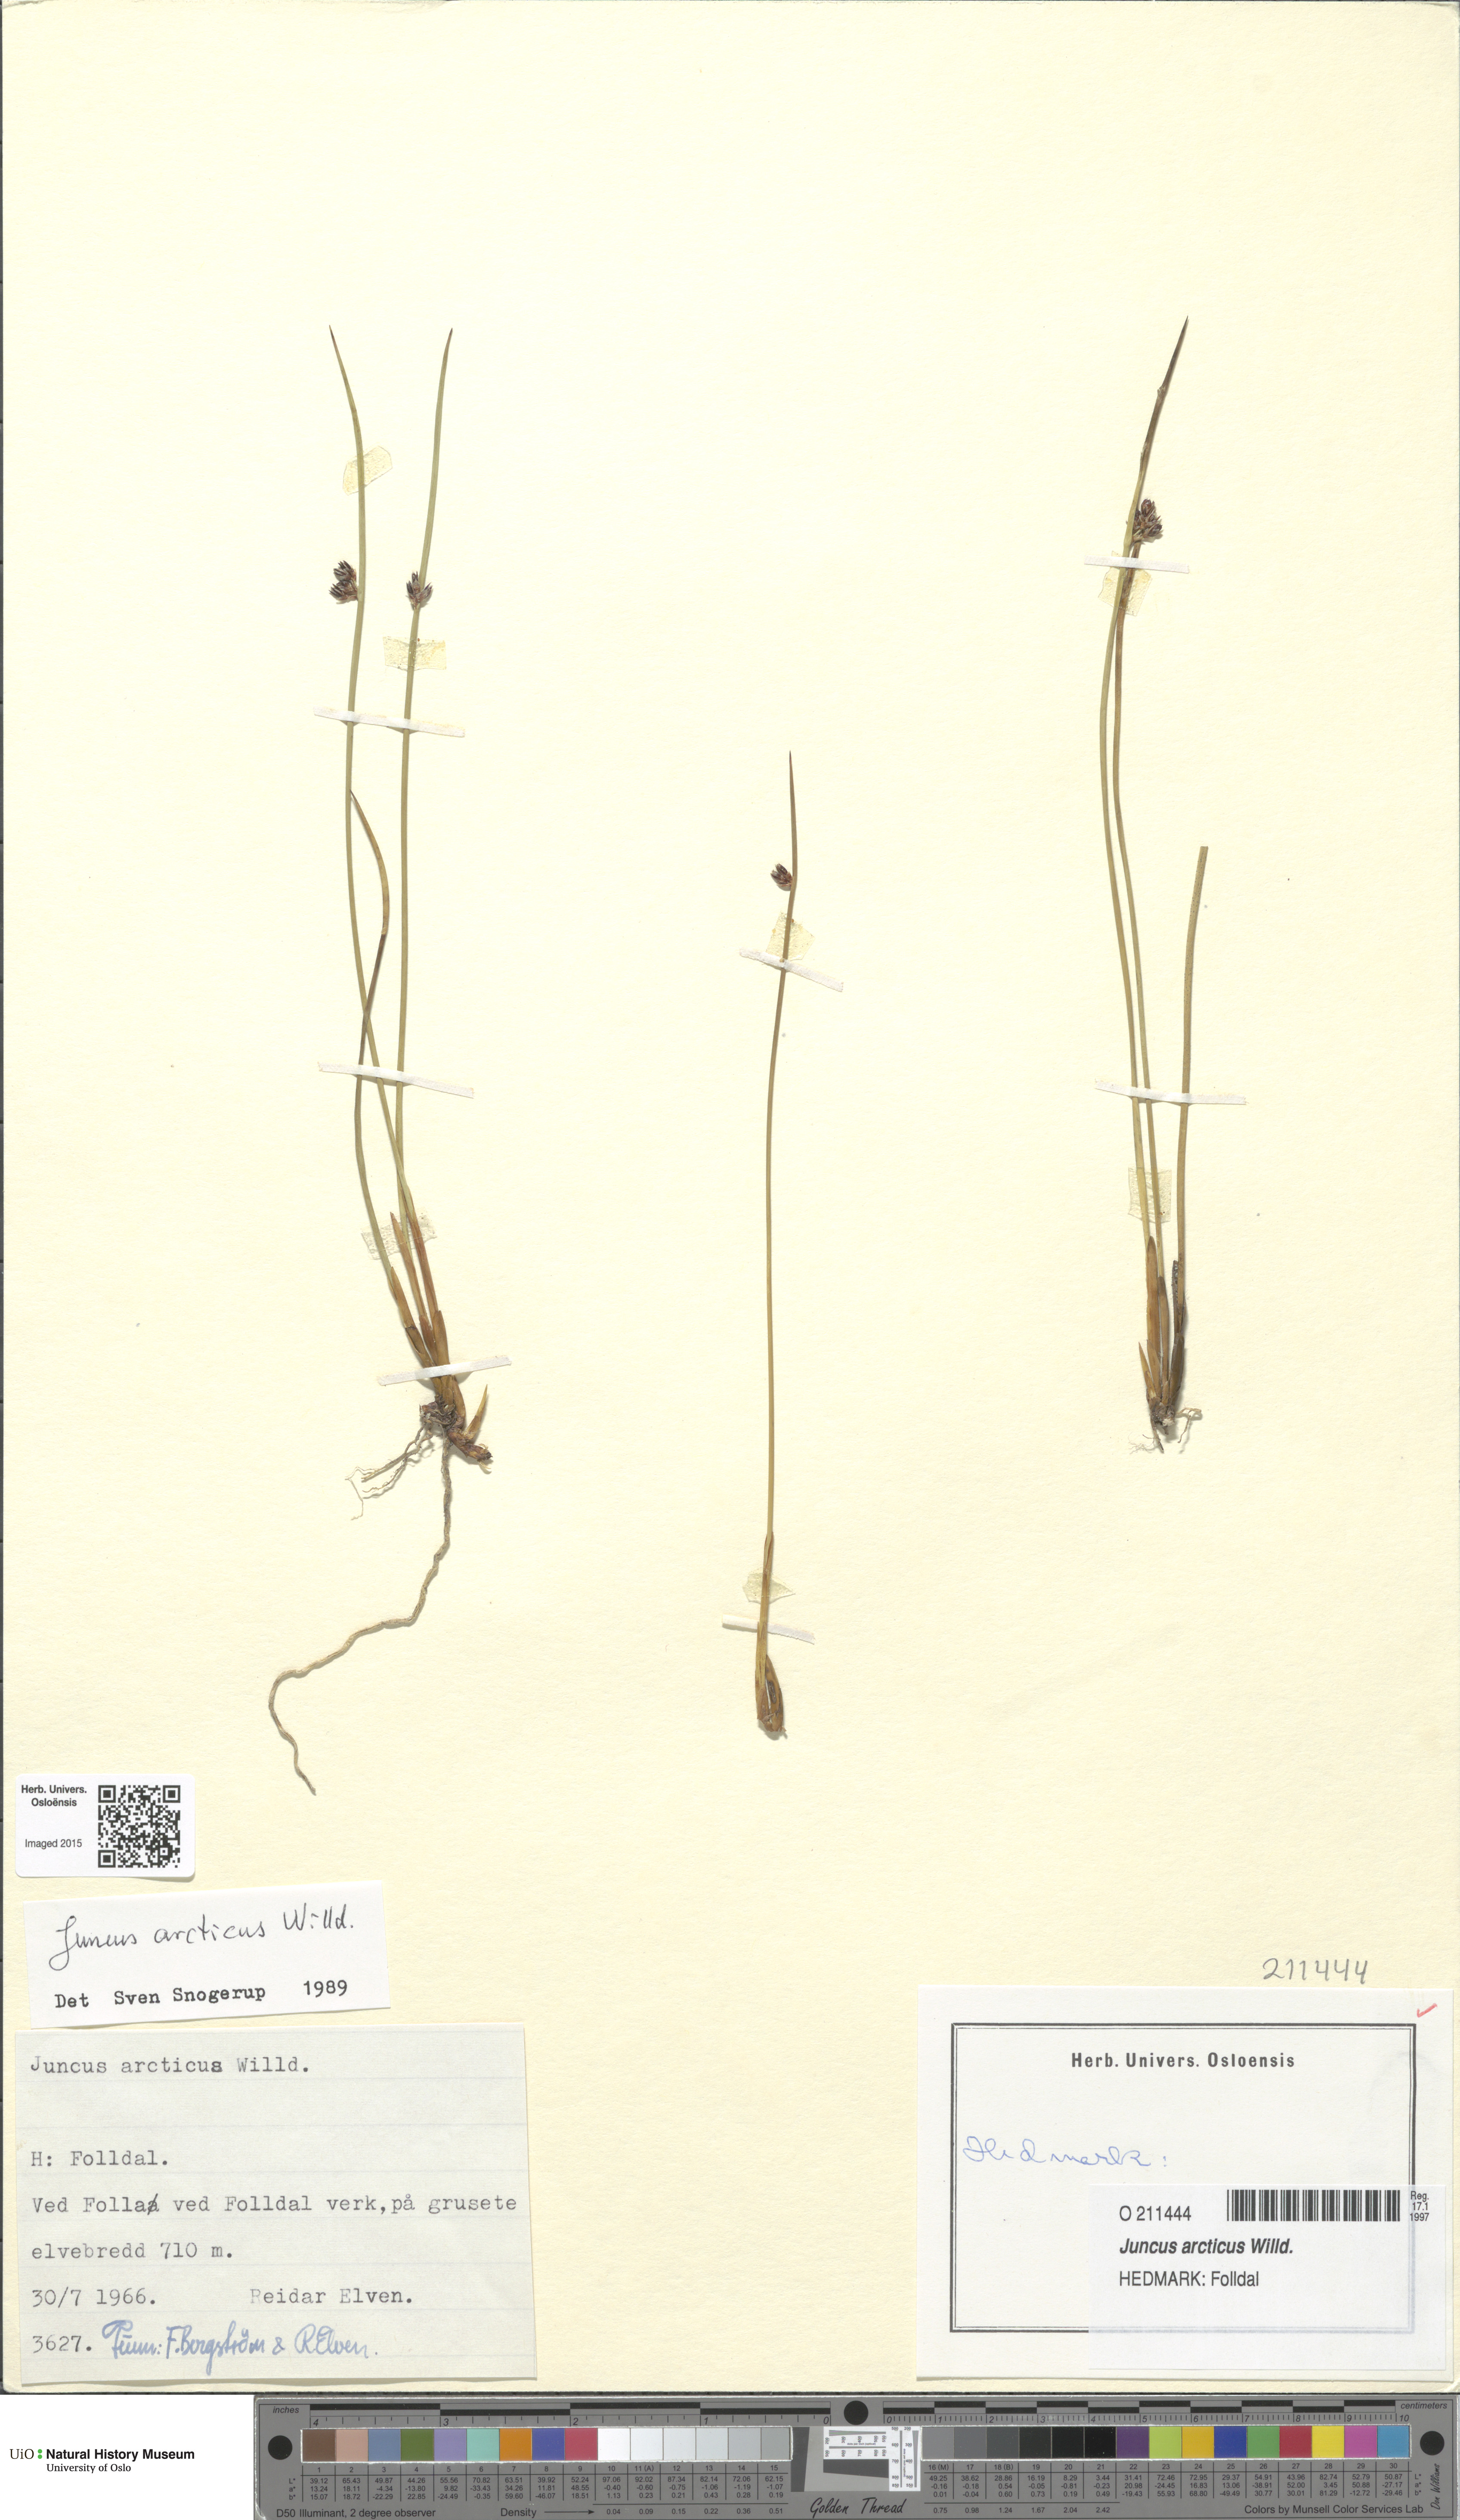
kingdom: Plantae
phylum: Tracheophyta
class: Liliopsida
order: Poales
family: Juncaceae
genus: Juncus
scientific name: Juncus arcticus
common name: Arctic rush
